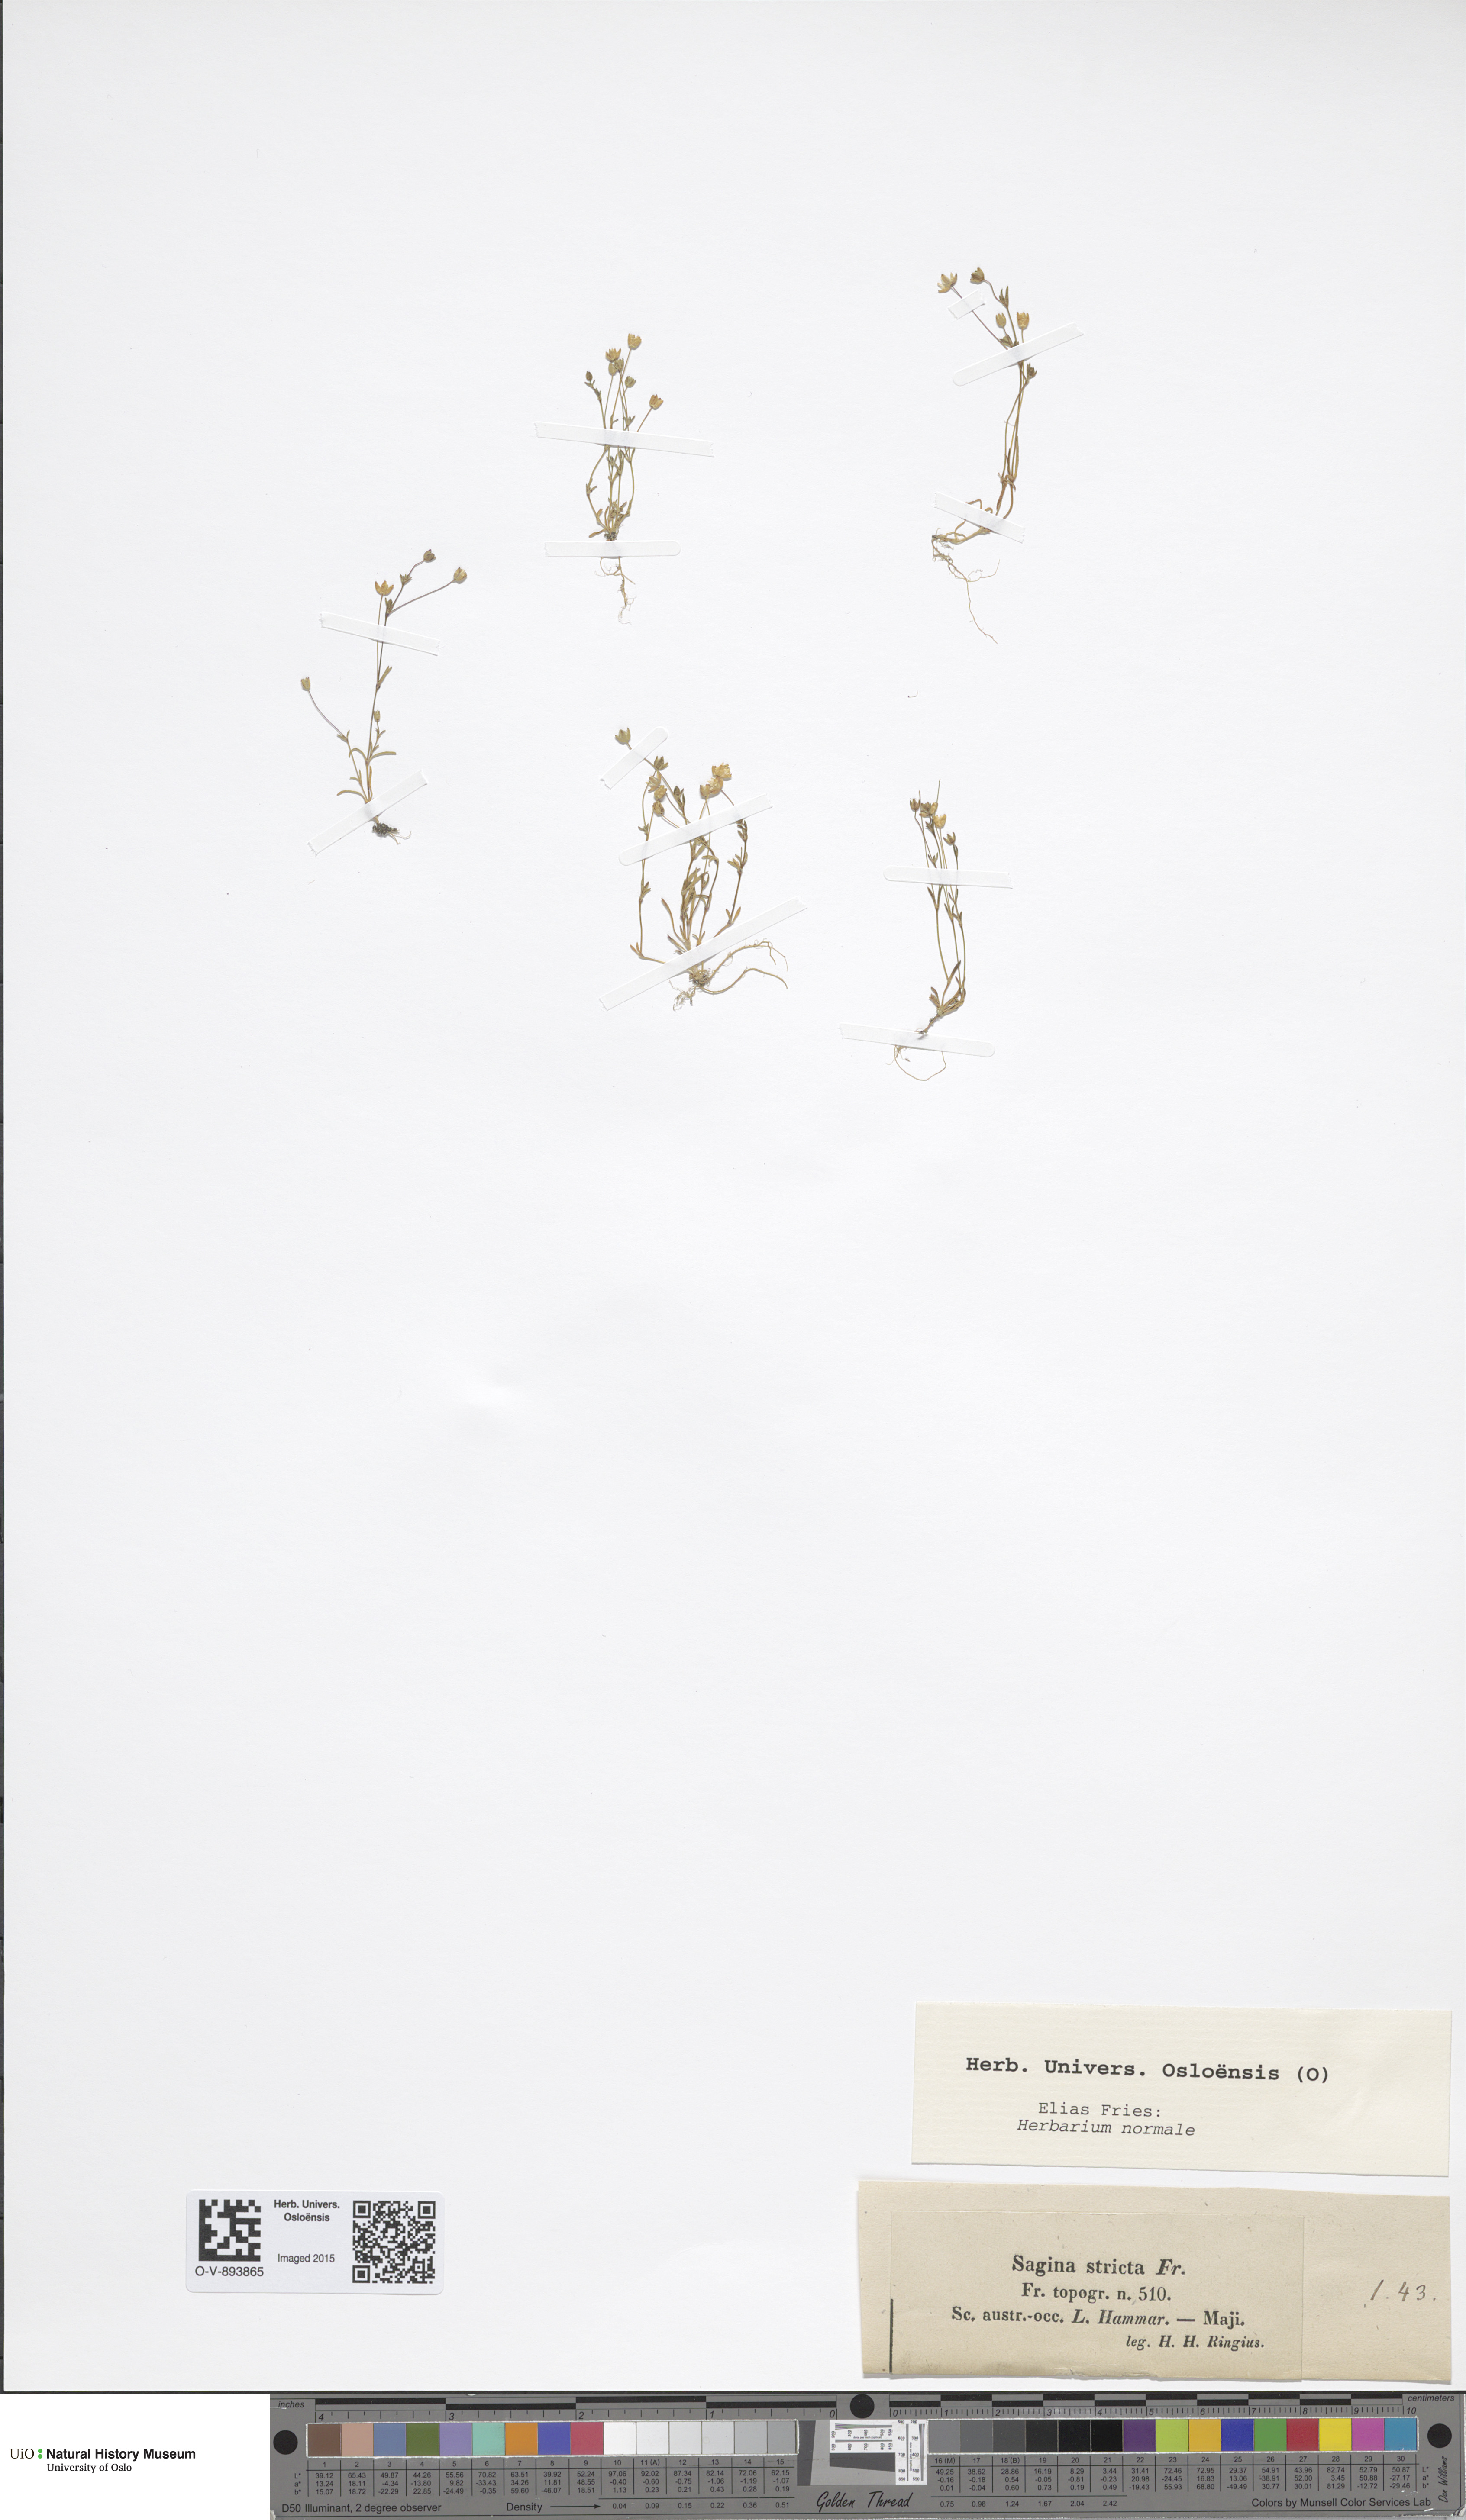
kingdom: Plantae
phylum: Tracheophyta
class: Magnoliopsida
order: Caryophyllales
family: Caryophyllaceae
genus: Sagina
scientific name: Sagina maritima
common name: Sea pearlwort
